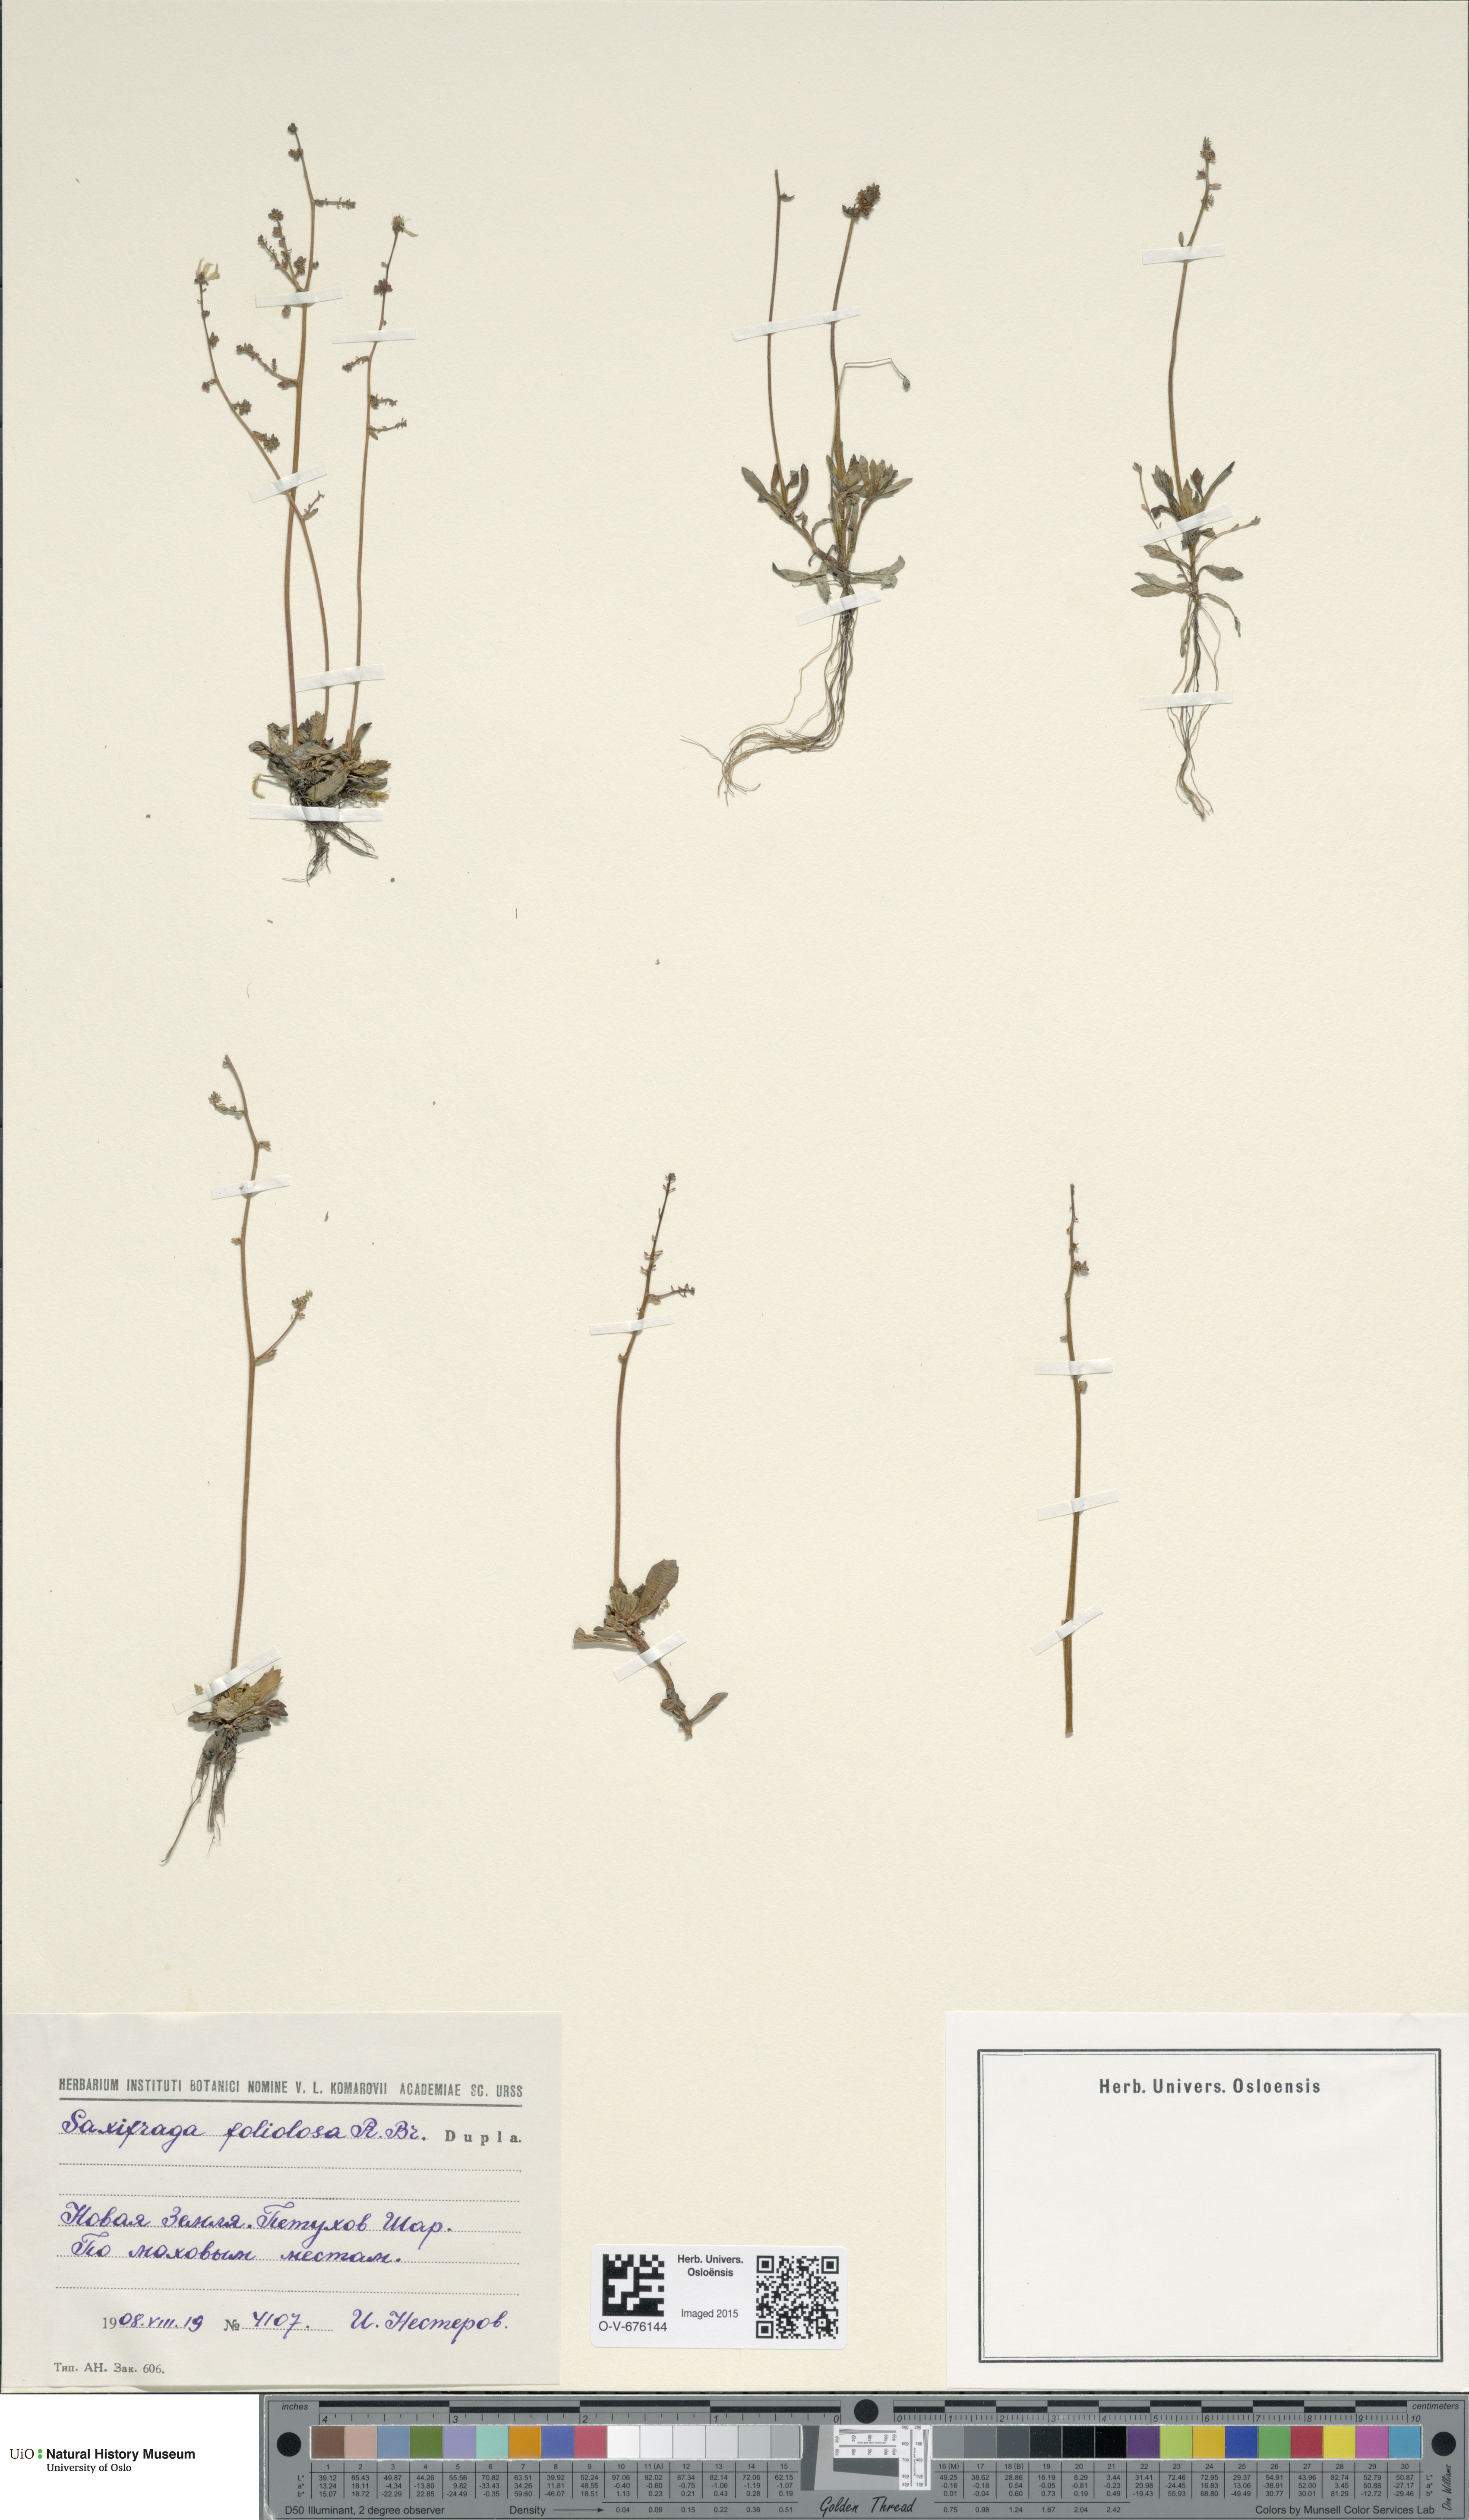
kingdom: Plantae
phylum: Tracheophyta
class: Magnoliopsida
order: Saxifragales
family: Saxifragaceae
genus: Micranthes
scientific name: Micranthes foliolosa
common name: Leafystem saxifrage
